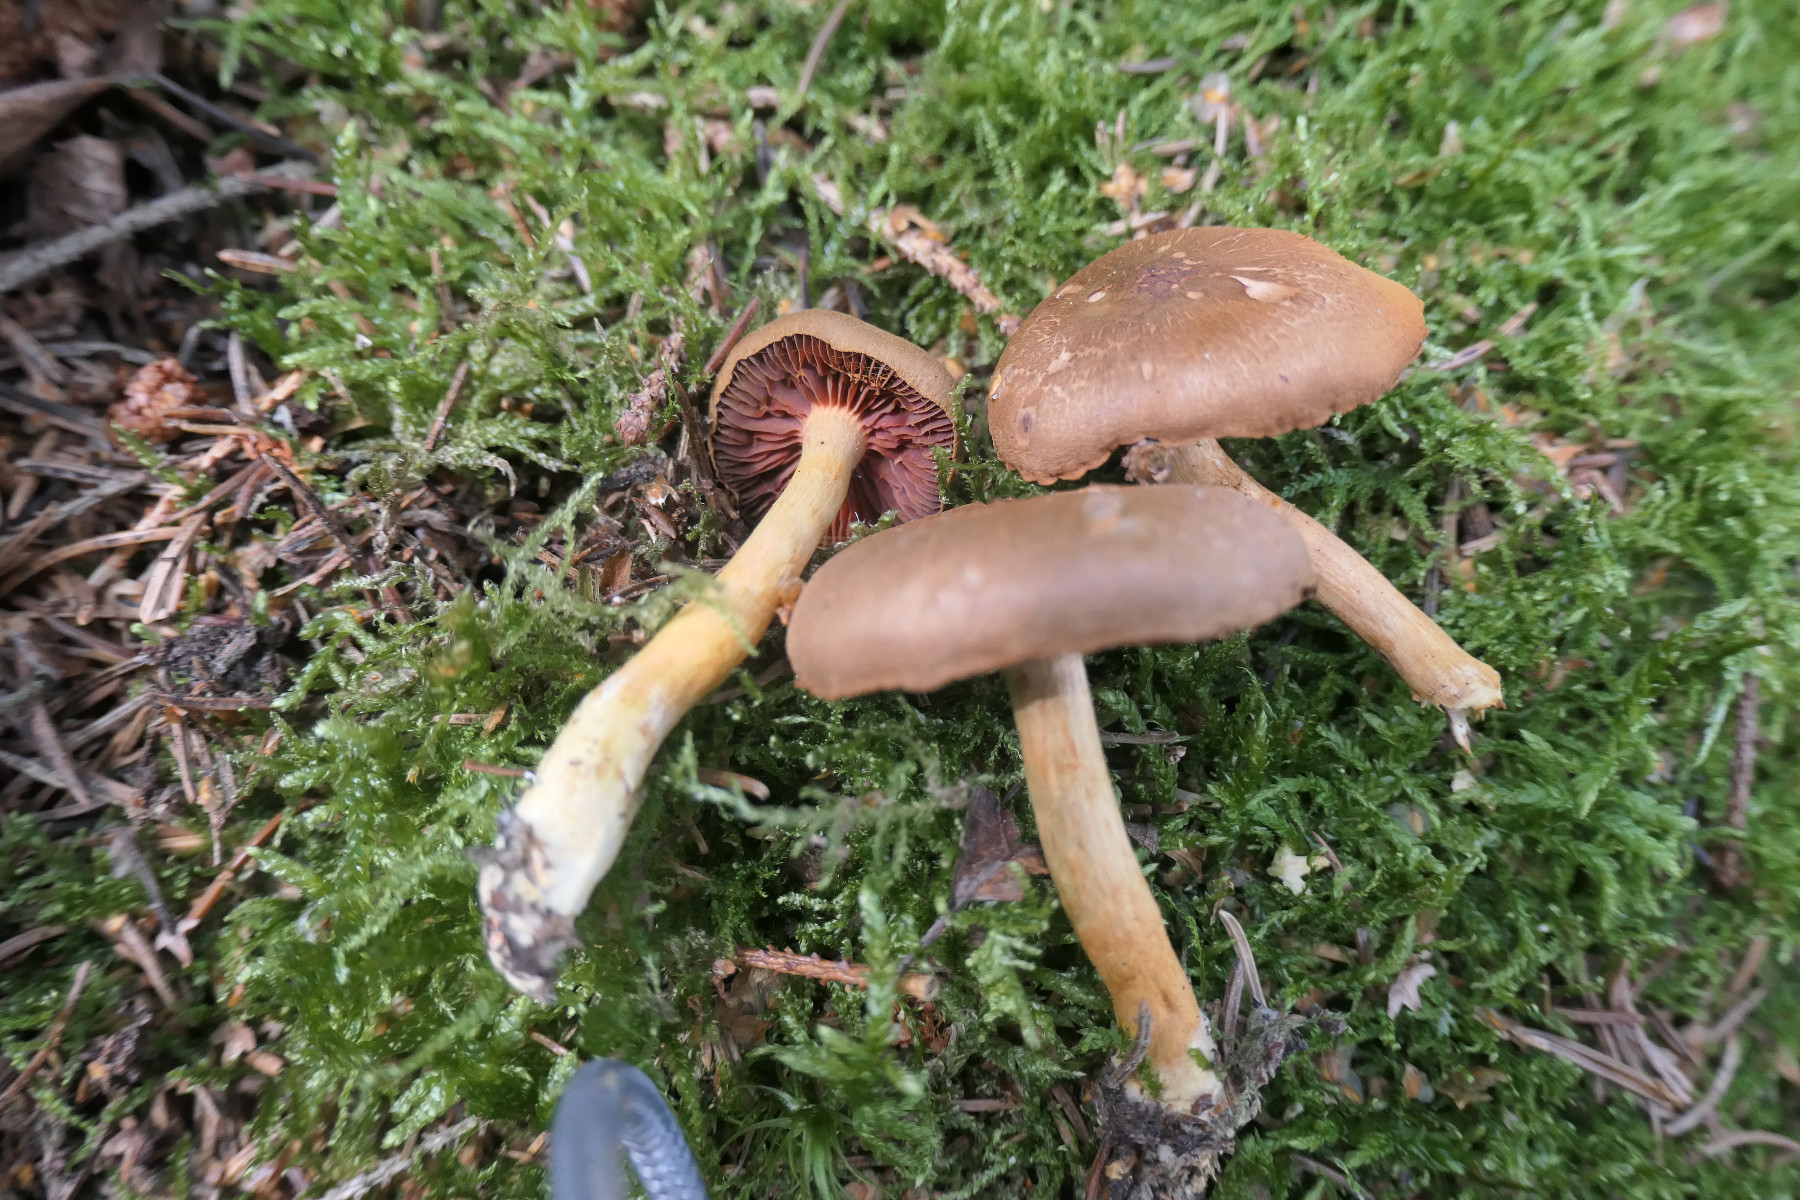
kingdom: Fungi
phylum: Basidiomycota
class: Agaricomycetes
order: Agaricales
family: Cortinariaceae
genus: Cortinarius
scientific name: Cortinarius
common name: cinnoberbladet slørhat
